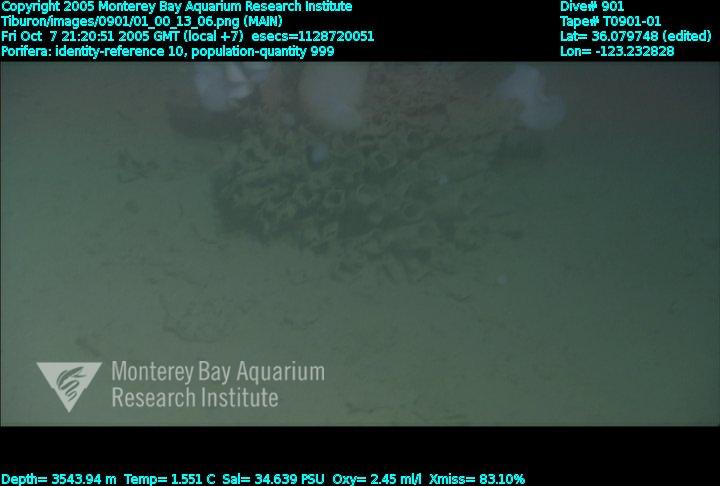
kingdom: Animalia
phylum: Porifera
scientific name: Porifera
